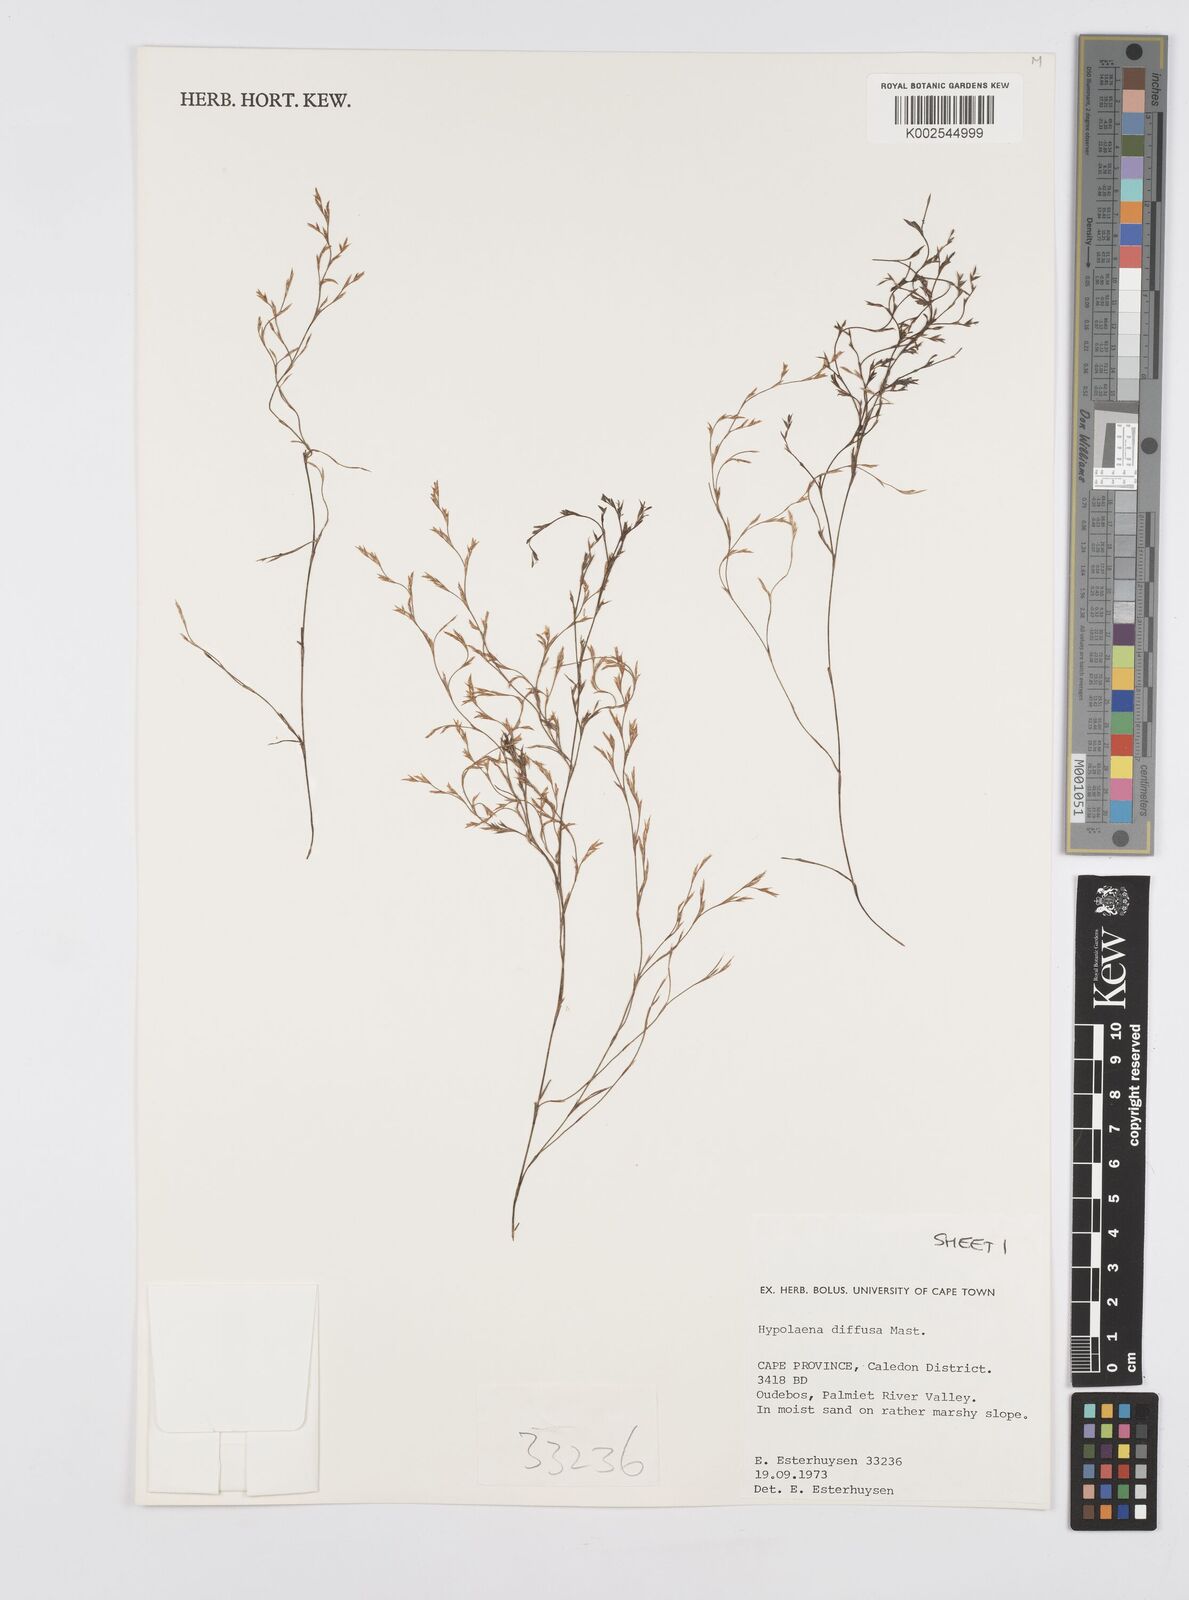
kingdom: Plantae
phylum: Tracheophyta
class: Liliopsida
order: Poales
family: Restionaceae
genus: Anthochortus
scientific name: Anthochortus crinalis
